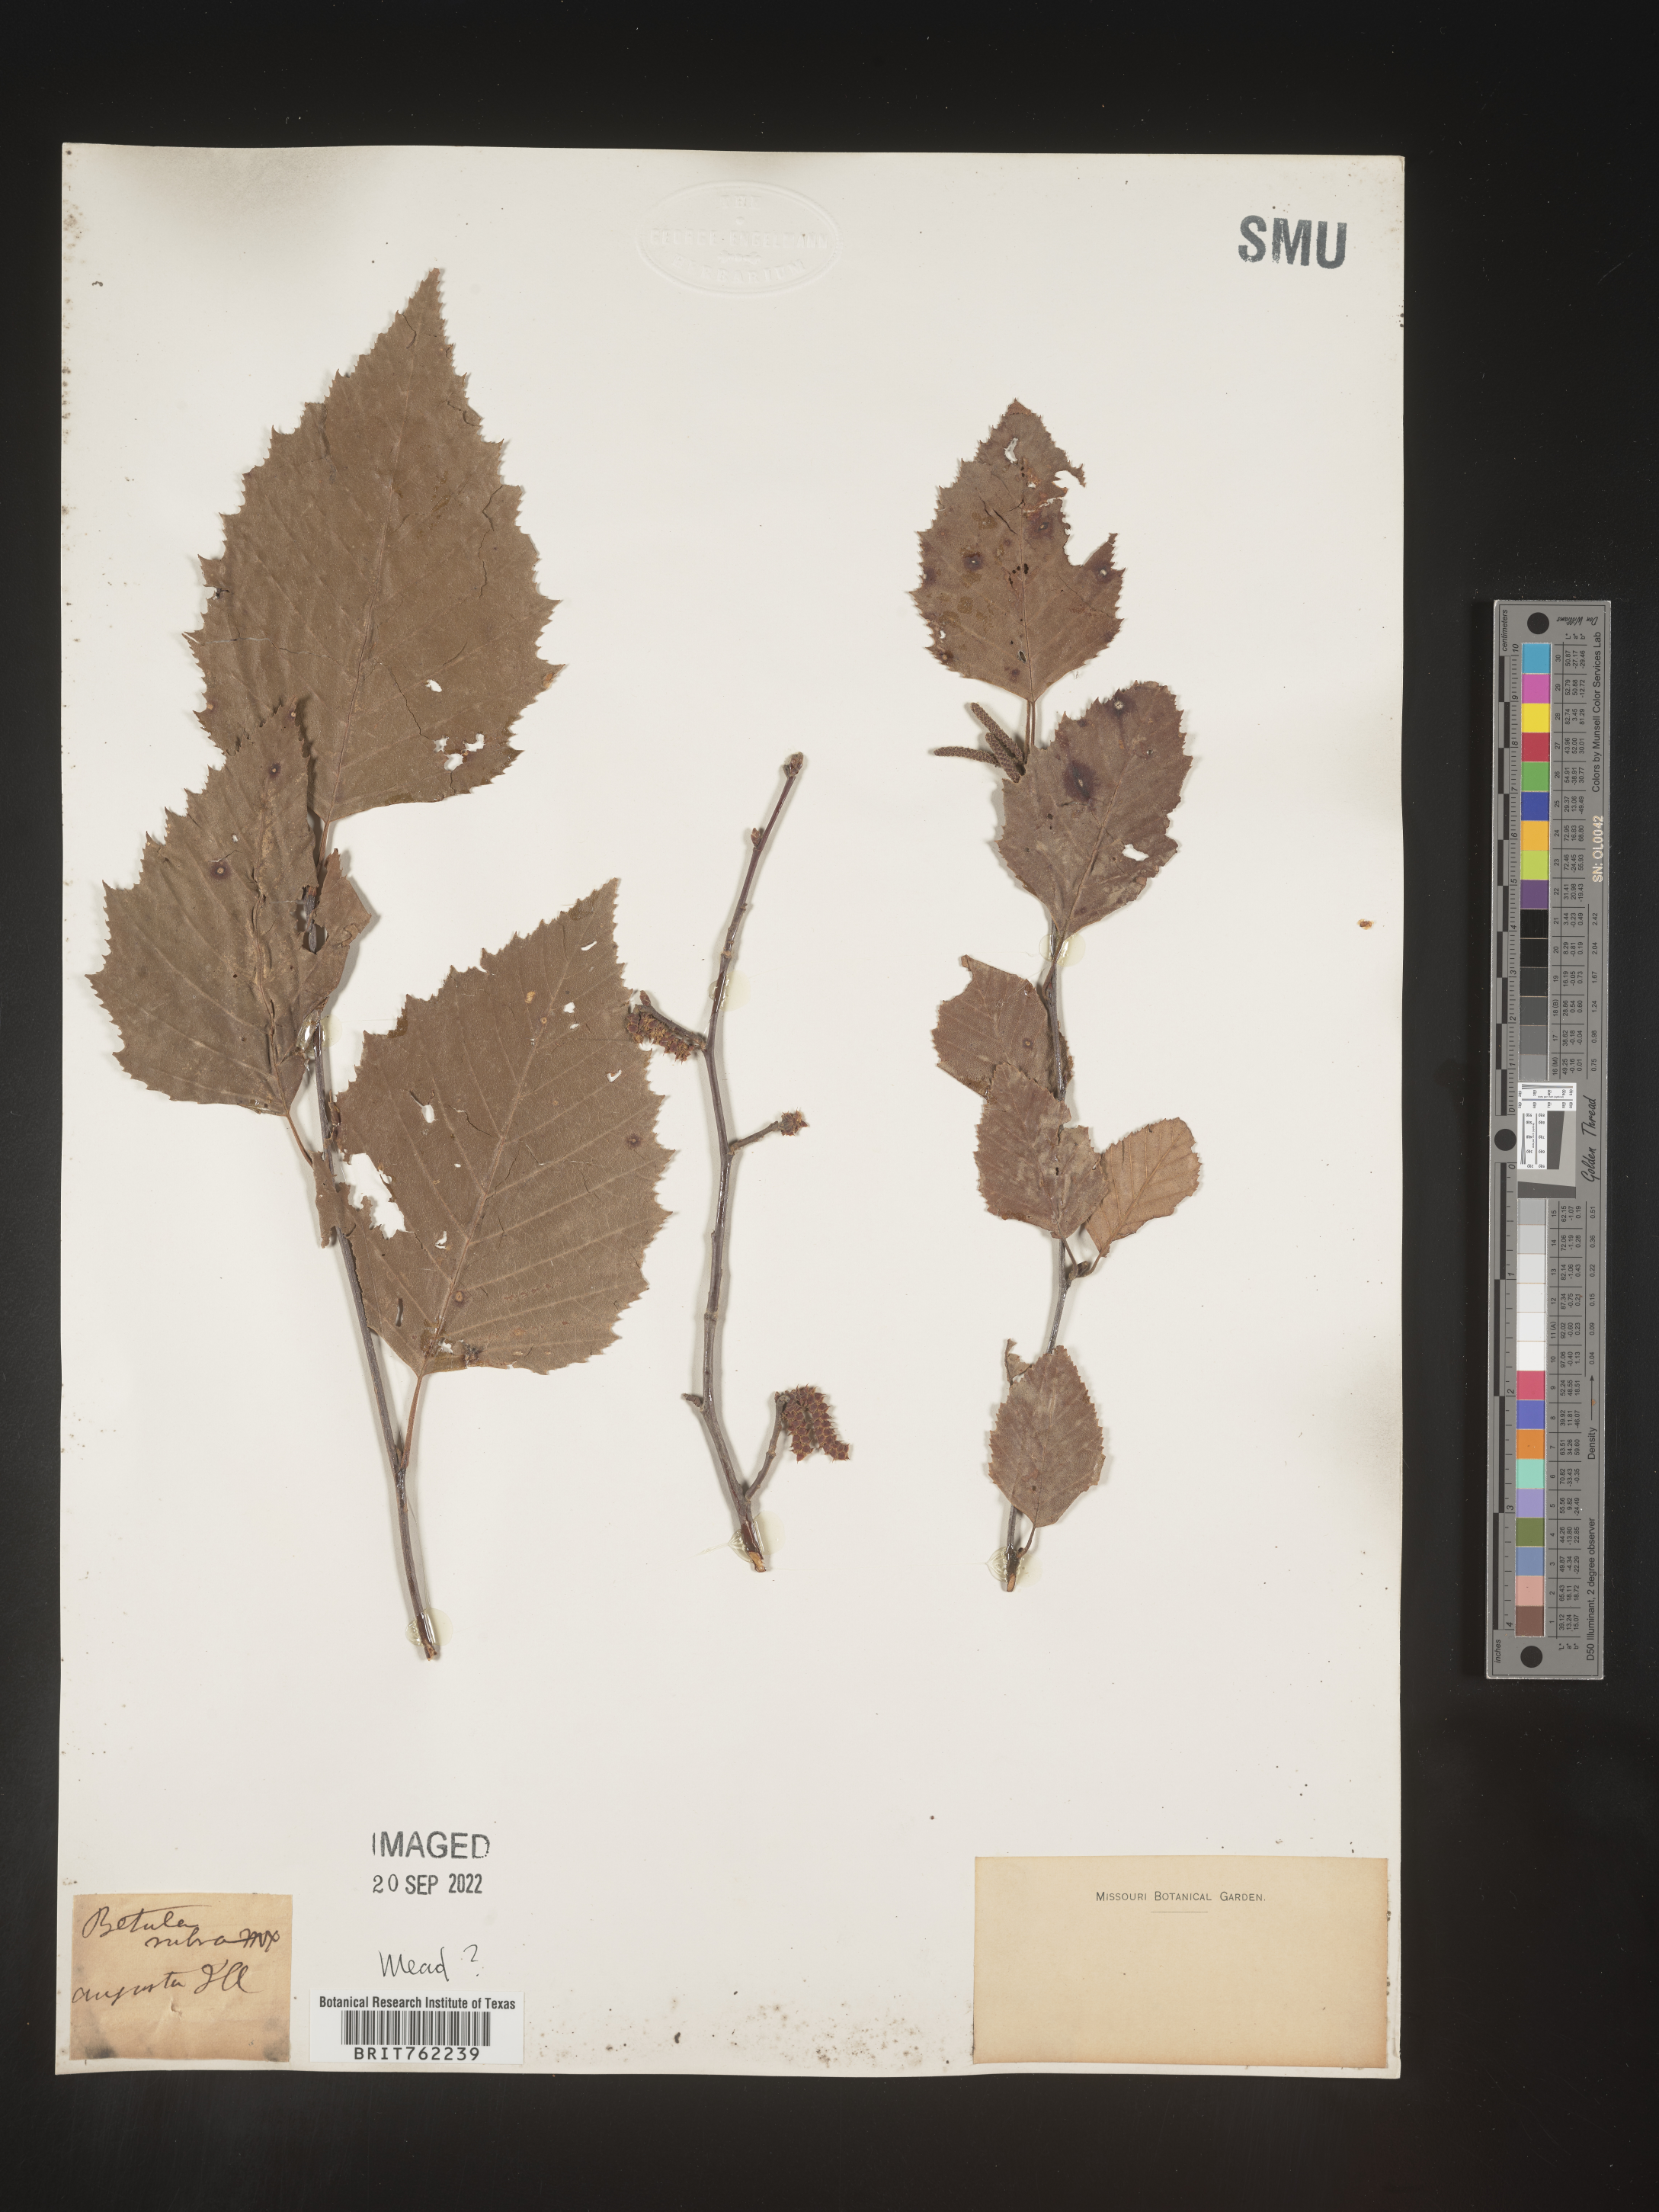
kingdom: Plantae
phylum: Tracheophyta
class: Magnoliopsida
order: Fagales
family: Betulaceae
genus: Betula
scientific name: Betula
